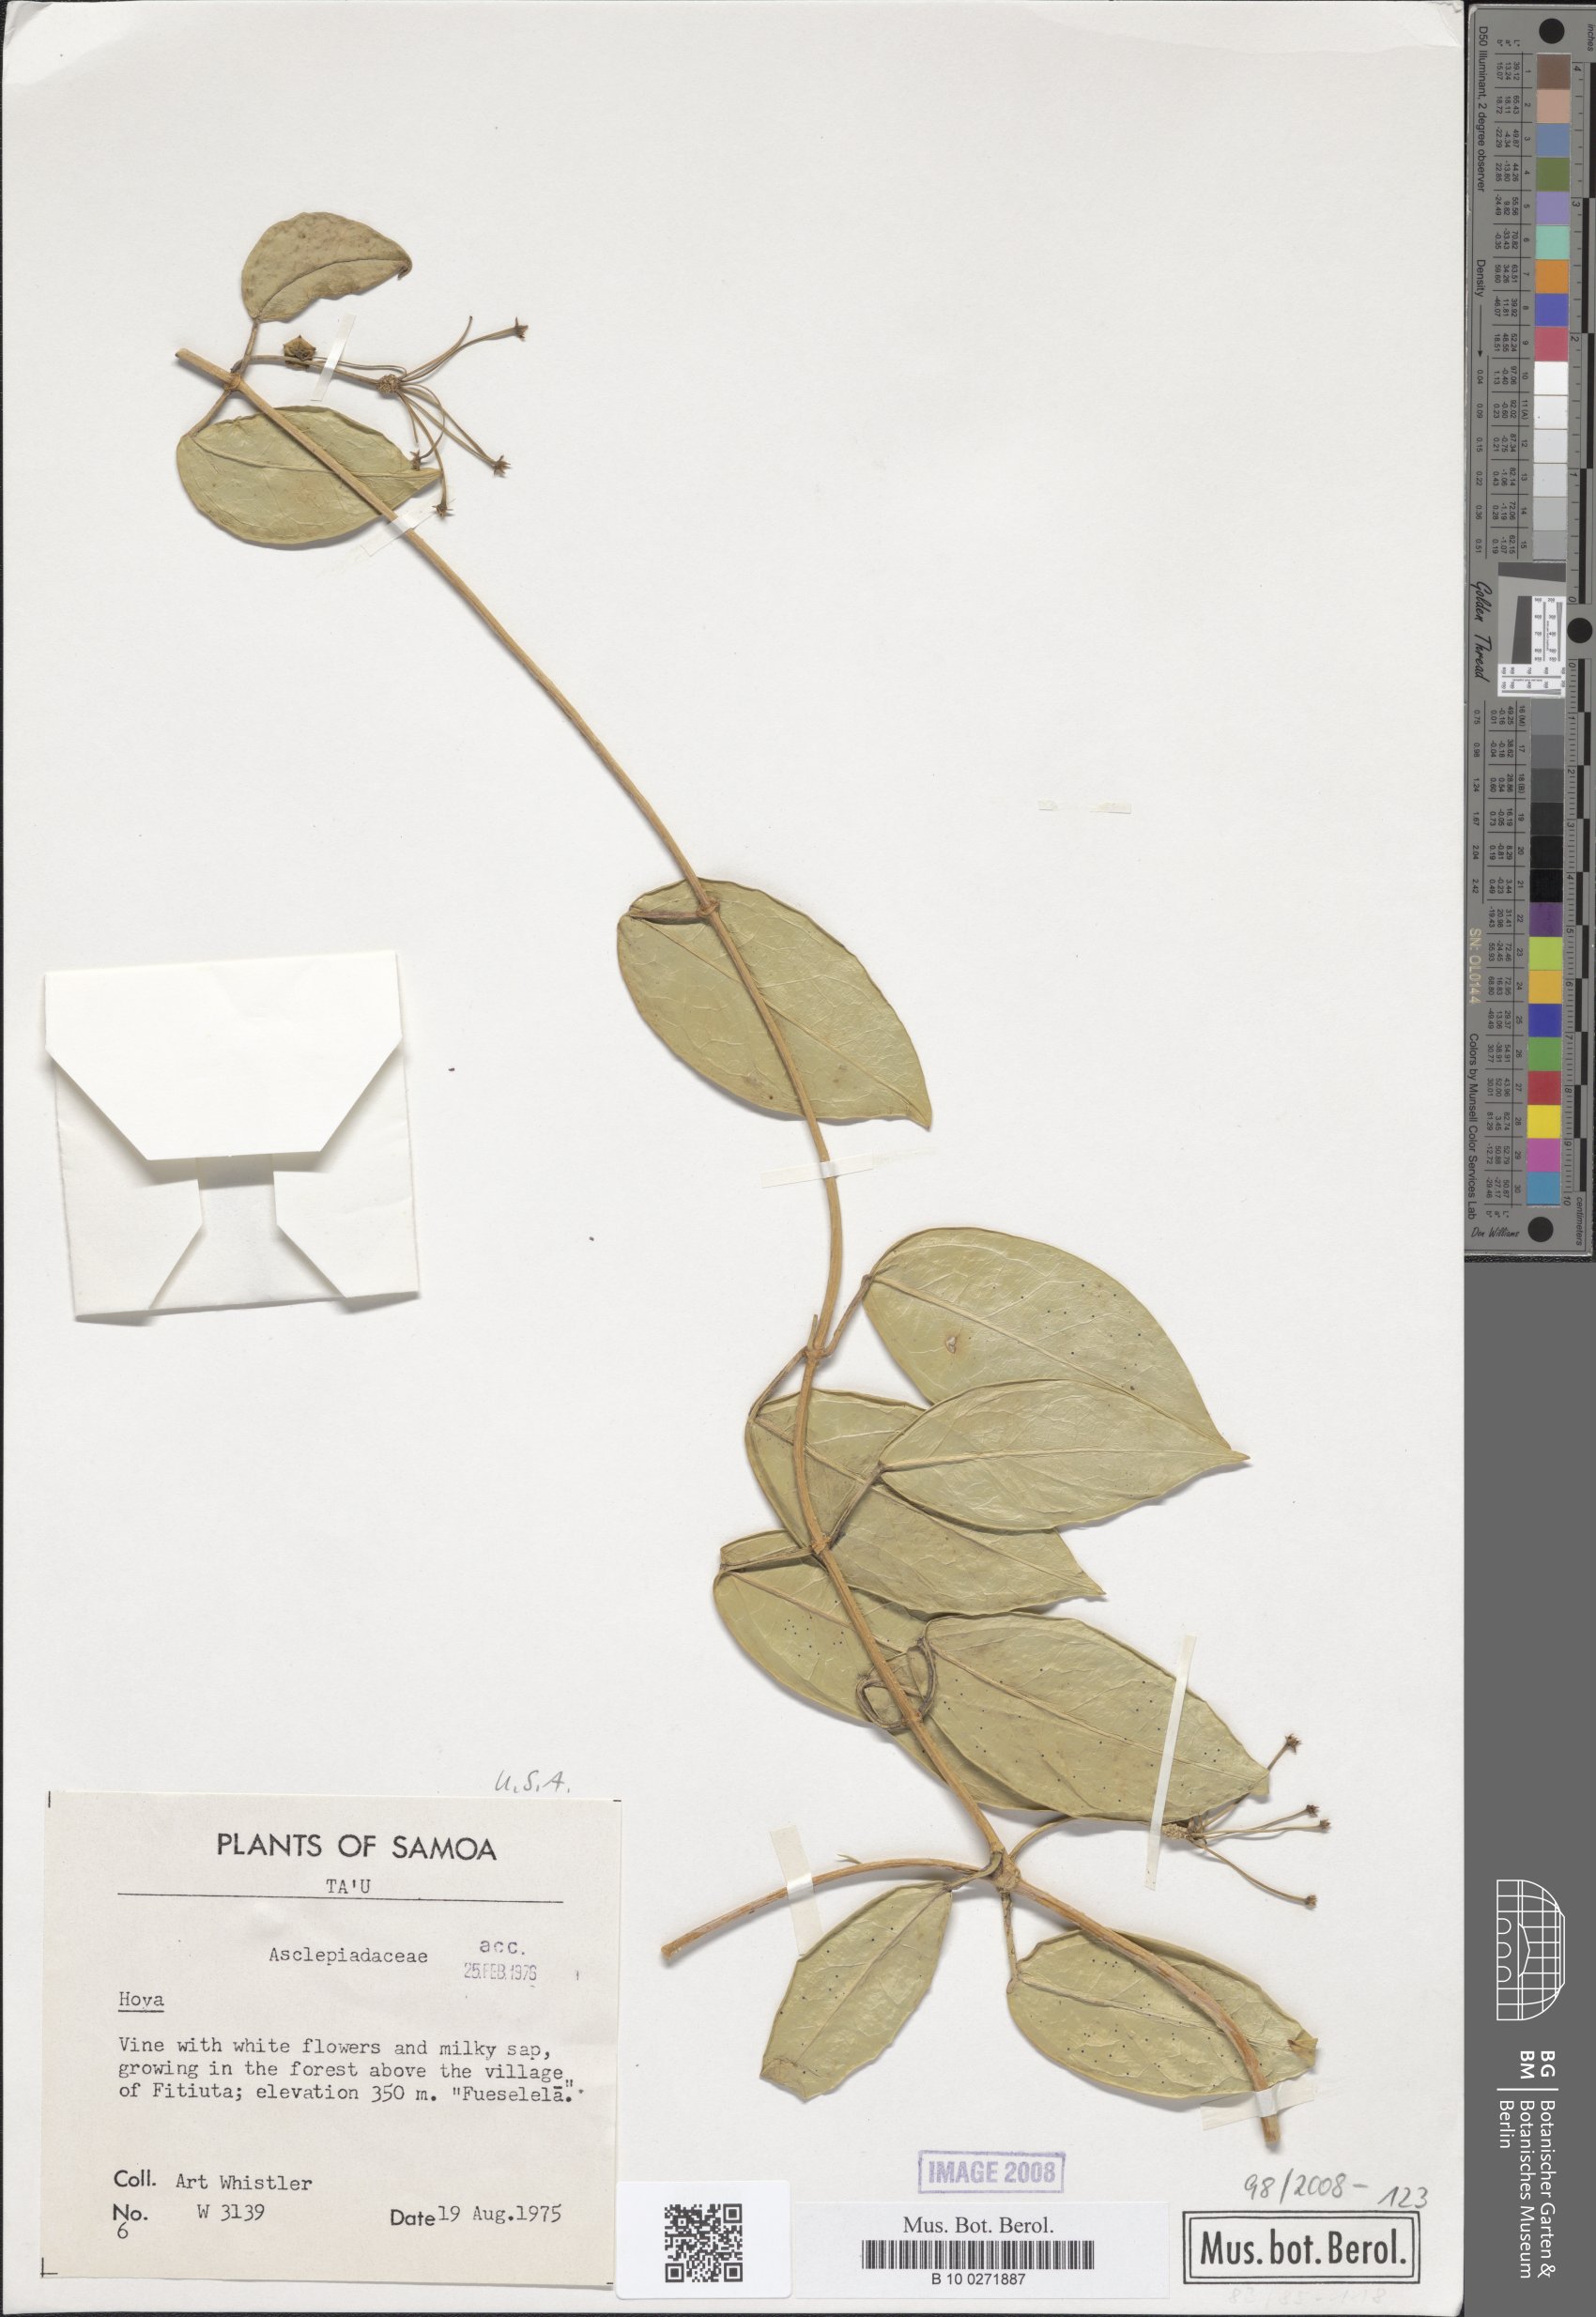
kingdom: Plantae
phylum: Tracheophyta
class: Magnoliopsida
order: Gentianales
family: Apocynaceae
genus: Hoya
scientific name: Hoya
